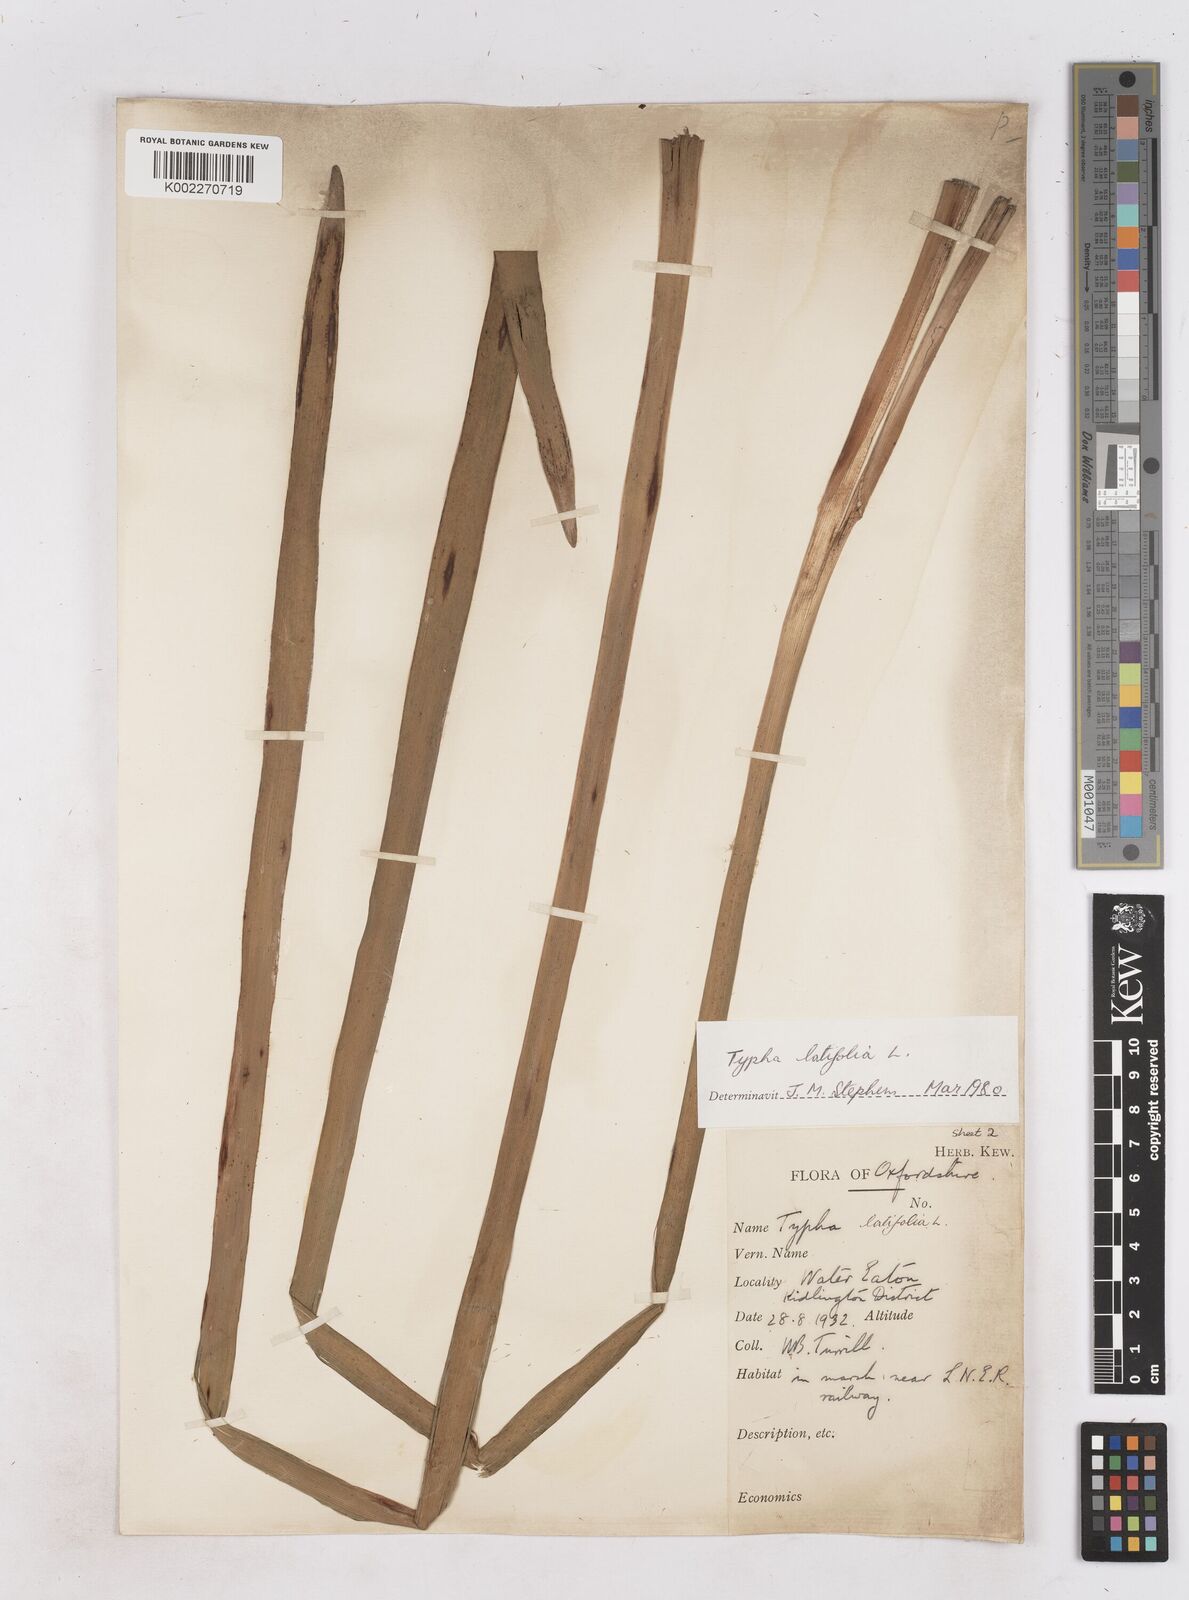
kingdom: Plantae
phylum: Tracheophyta
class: Liliopsida
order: Poales
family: Typhaceae
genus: Typha
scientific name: Typha latifolia
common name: Broadleaf cattail
